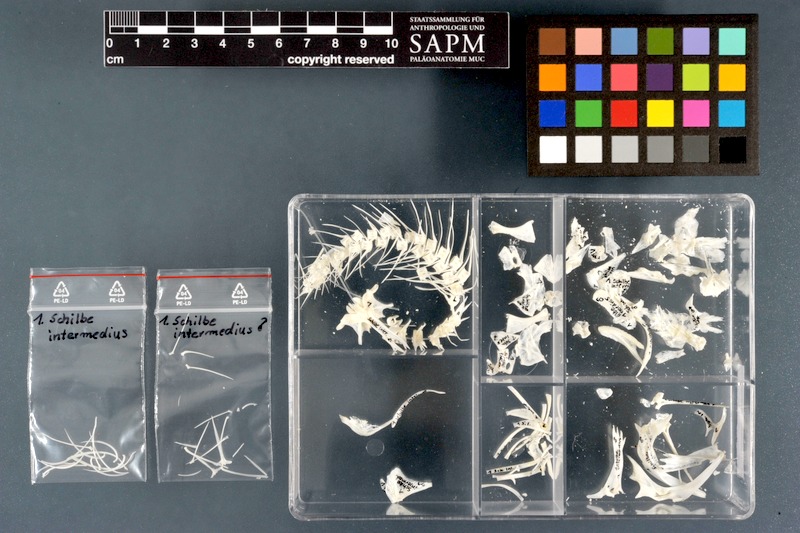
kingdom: Animalia
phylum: Chordata
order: Siluriformes
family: Schilbeidae
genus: Schilbe
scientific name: Schilbe intermedius
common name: Silver catfish
